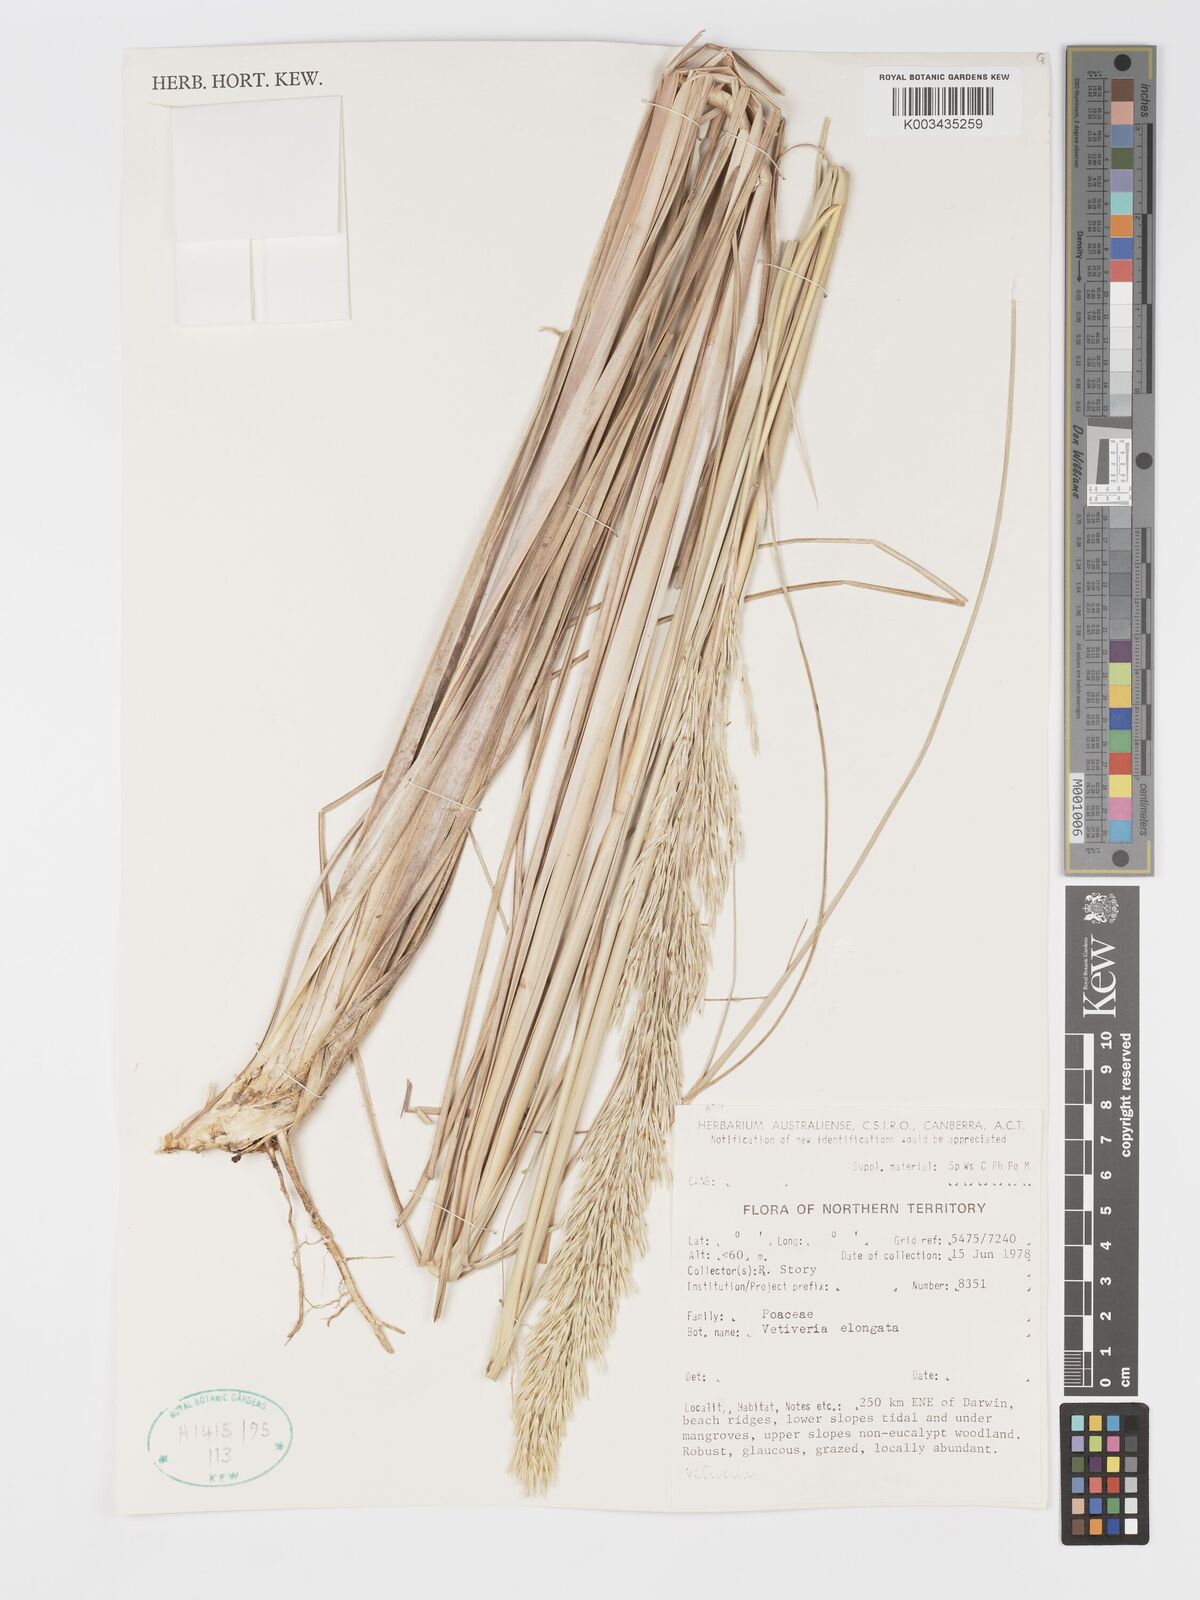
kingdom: Plantae
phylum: Tracheophyta
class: Liliopsida
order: Poales
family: Poaceae
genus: Chrysopogon
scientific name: Chrysopogon elongatus
